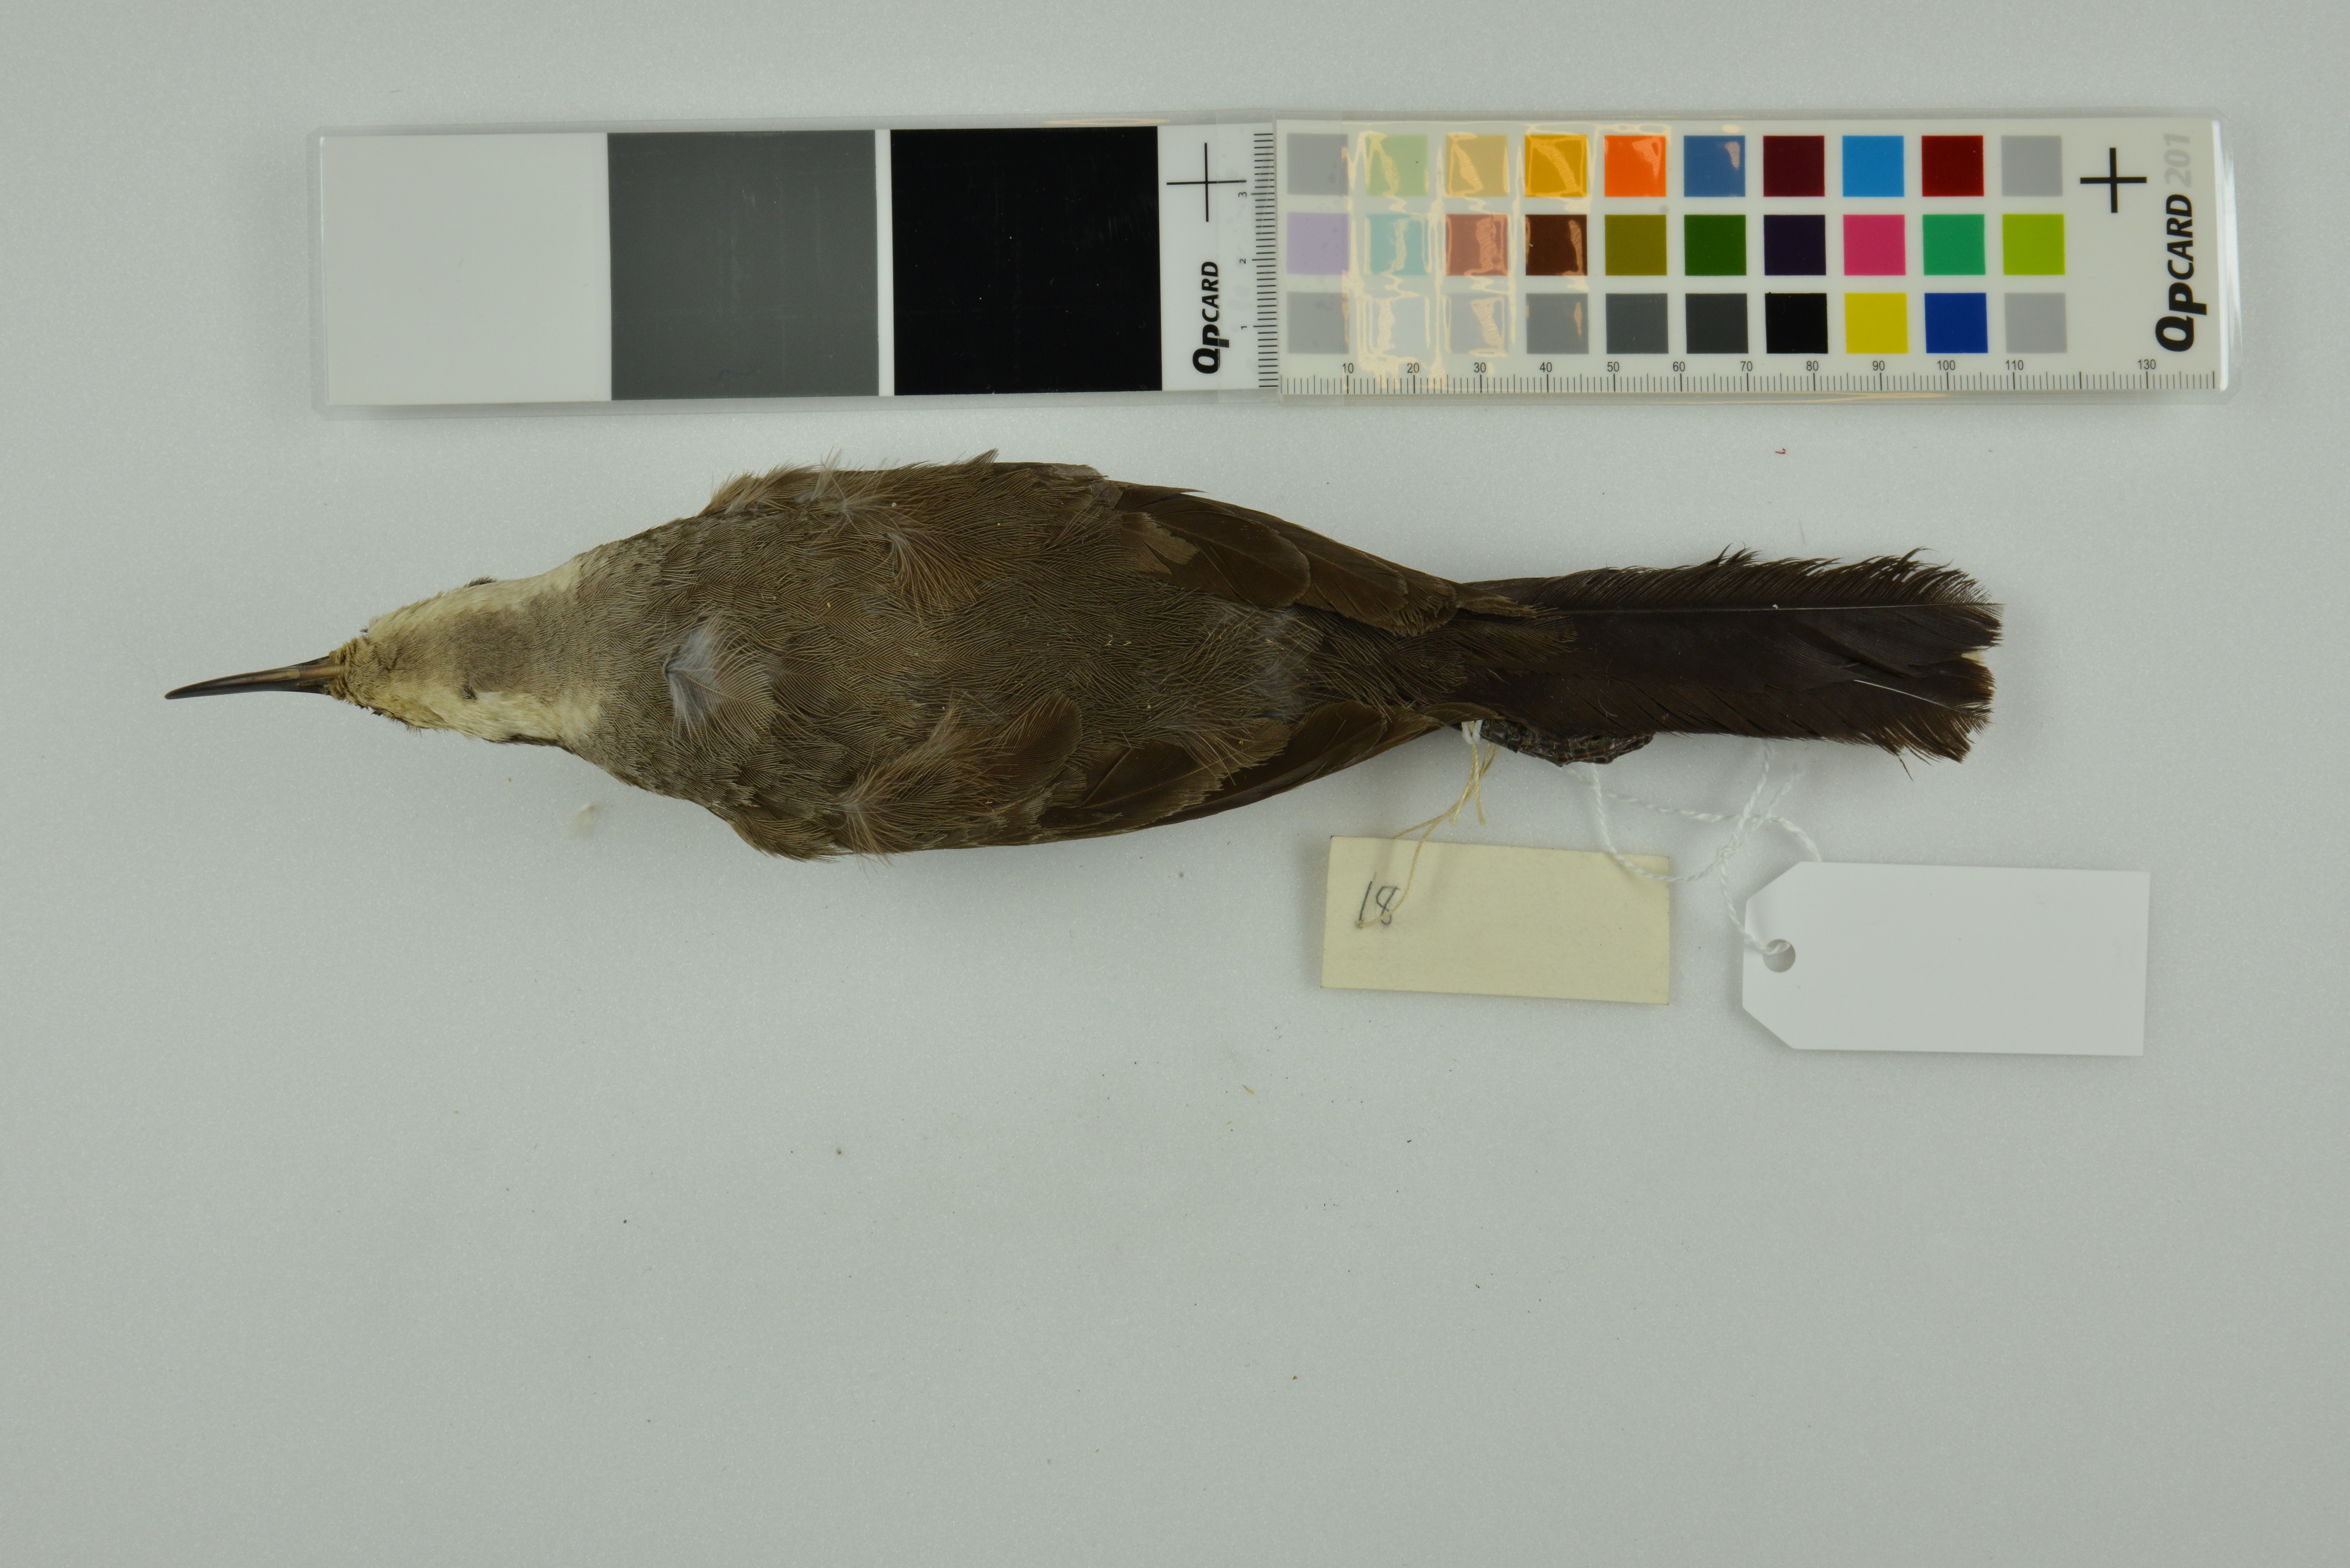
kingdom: Animalia
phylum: Chordata
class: Aves
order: Passeriformes
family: Pomatostomidae
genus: Pomatostomus
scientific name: Pomatostomus temporalis
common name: Grey-crowned babbler
